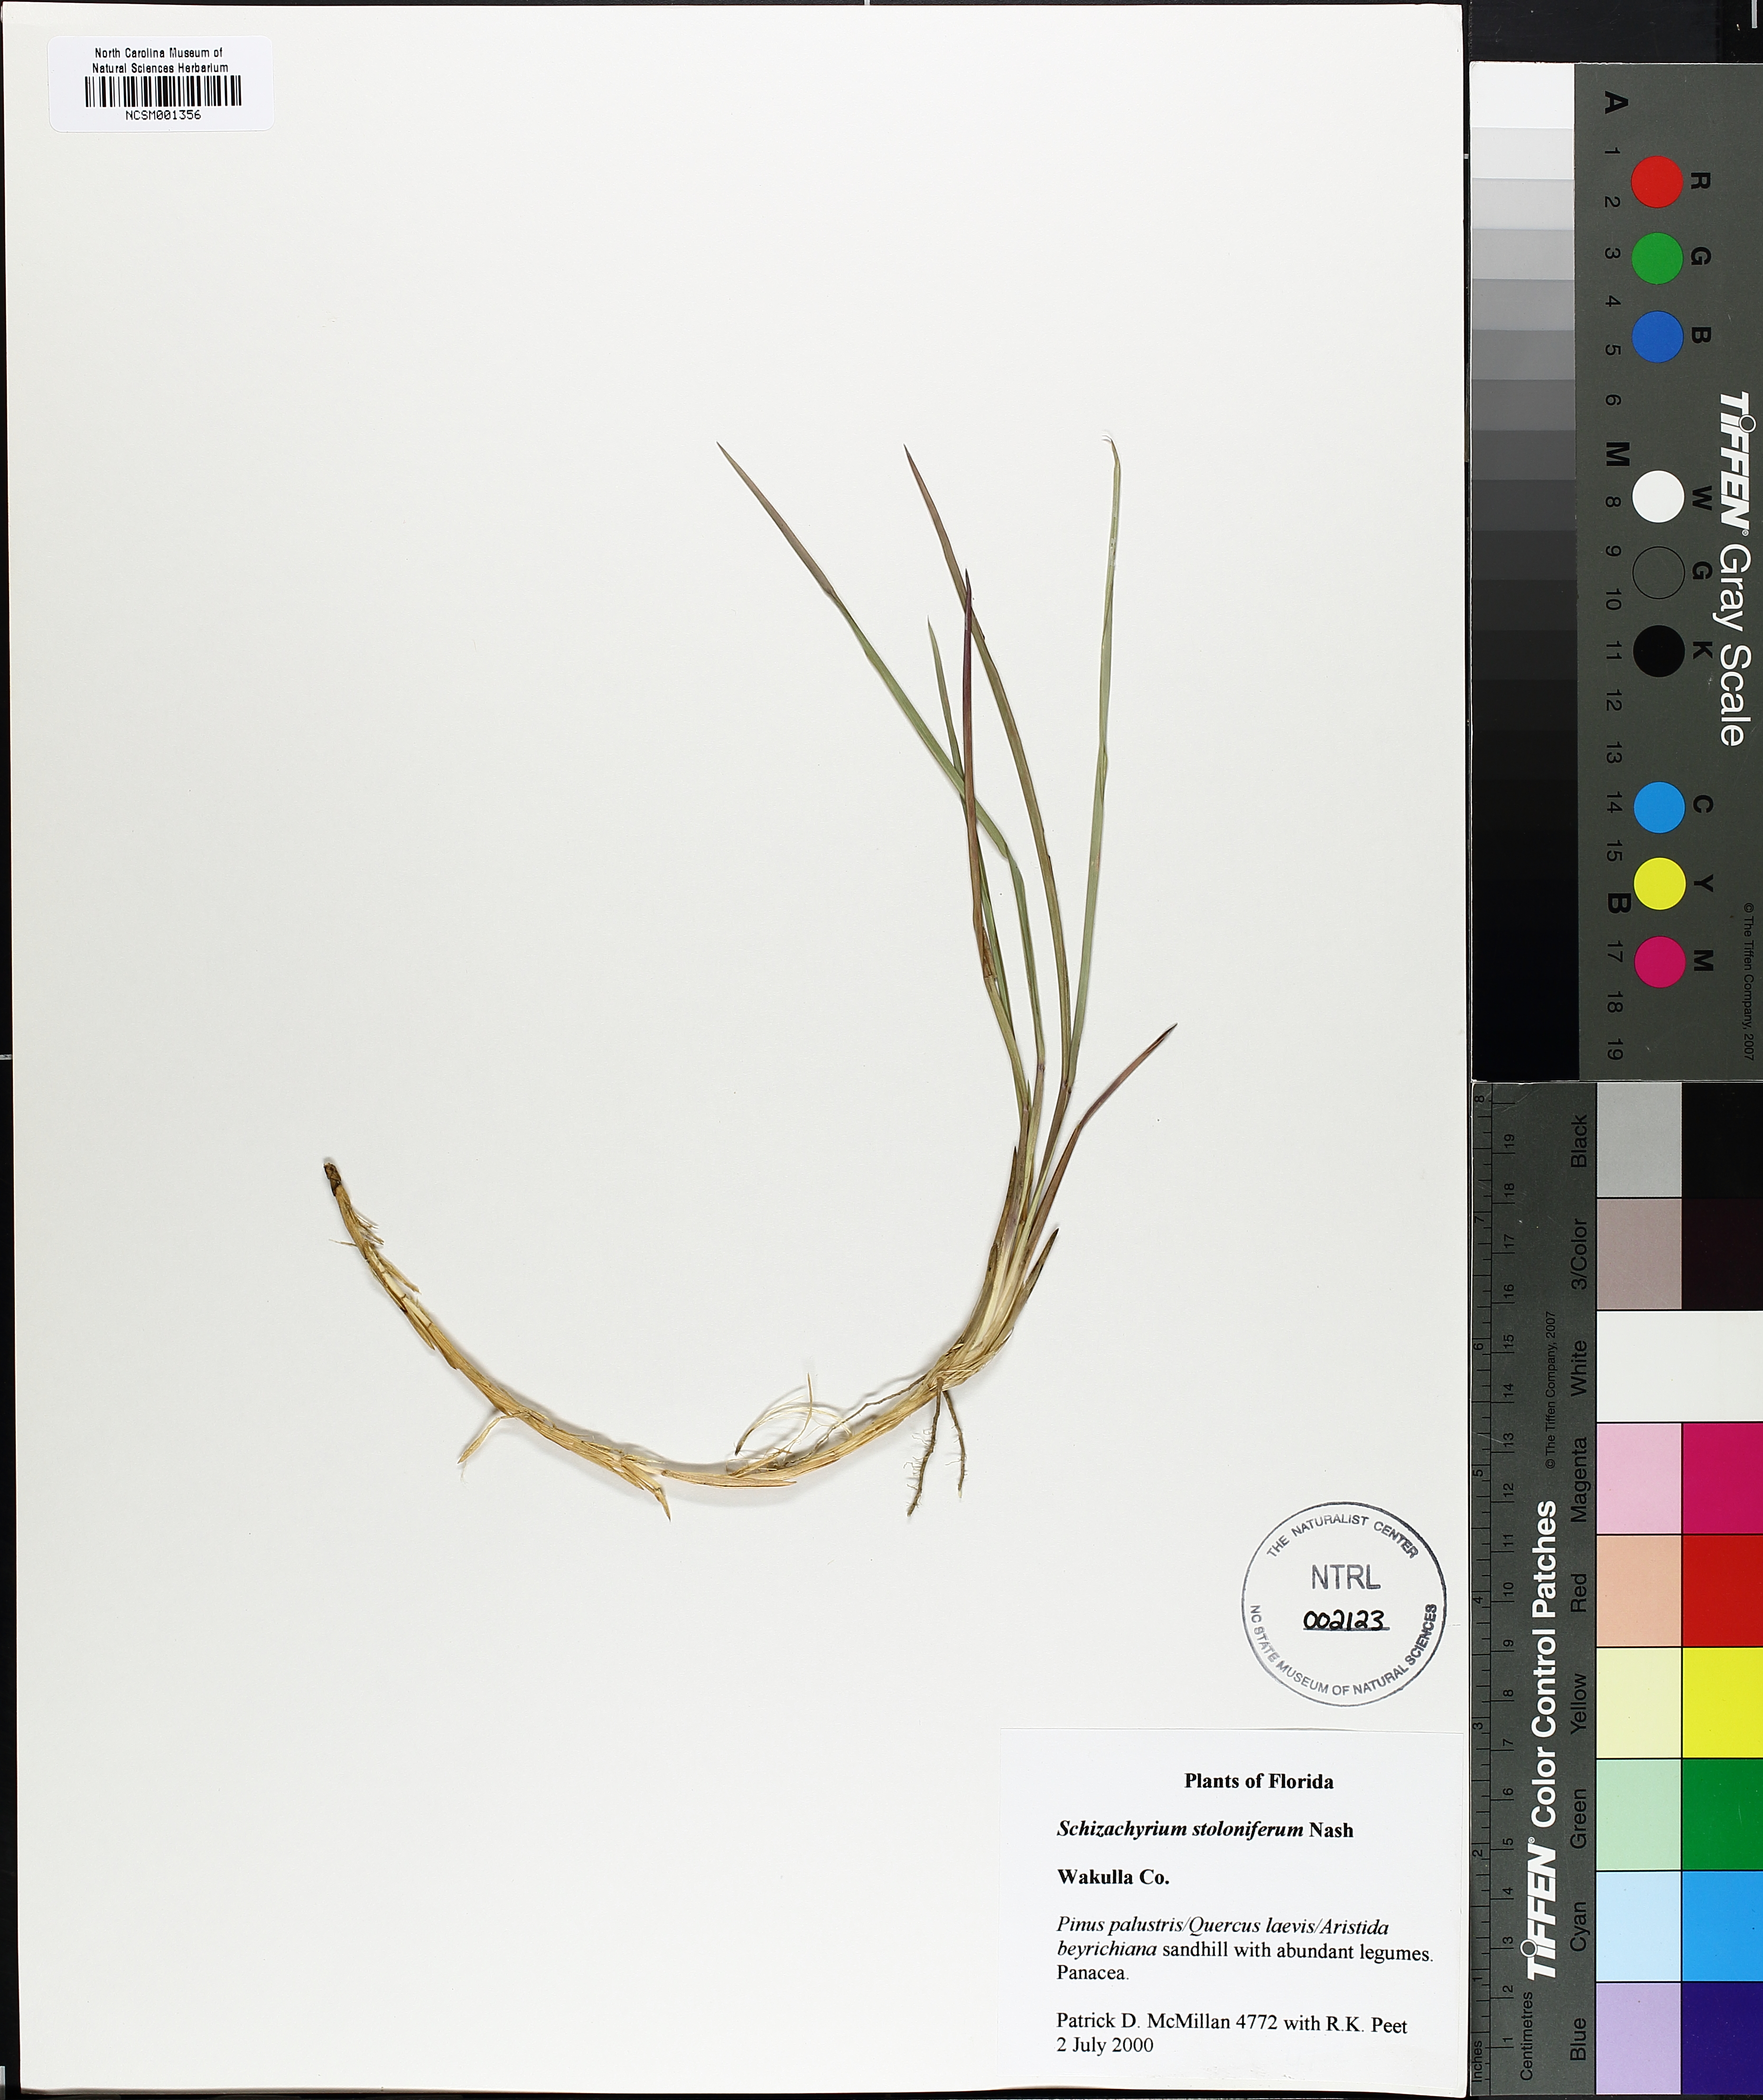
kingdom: Plantae
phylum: Tracheophyta
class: Liliopsida
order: Poales
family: Poaceae
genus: Andropogon
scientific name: Andropogon stolonifer
